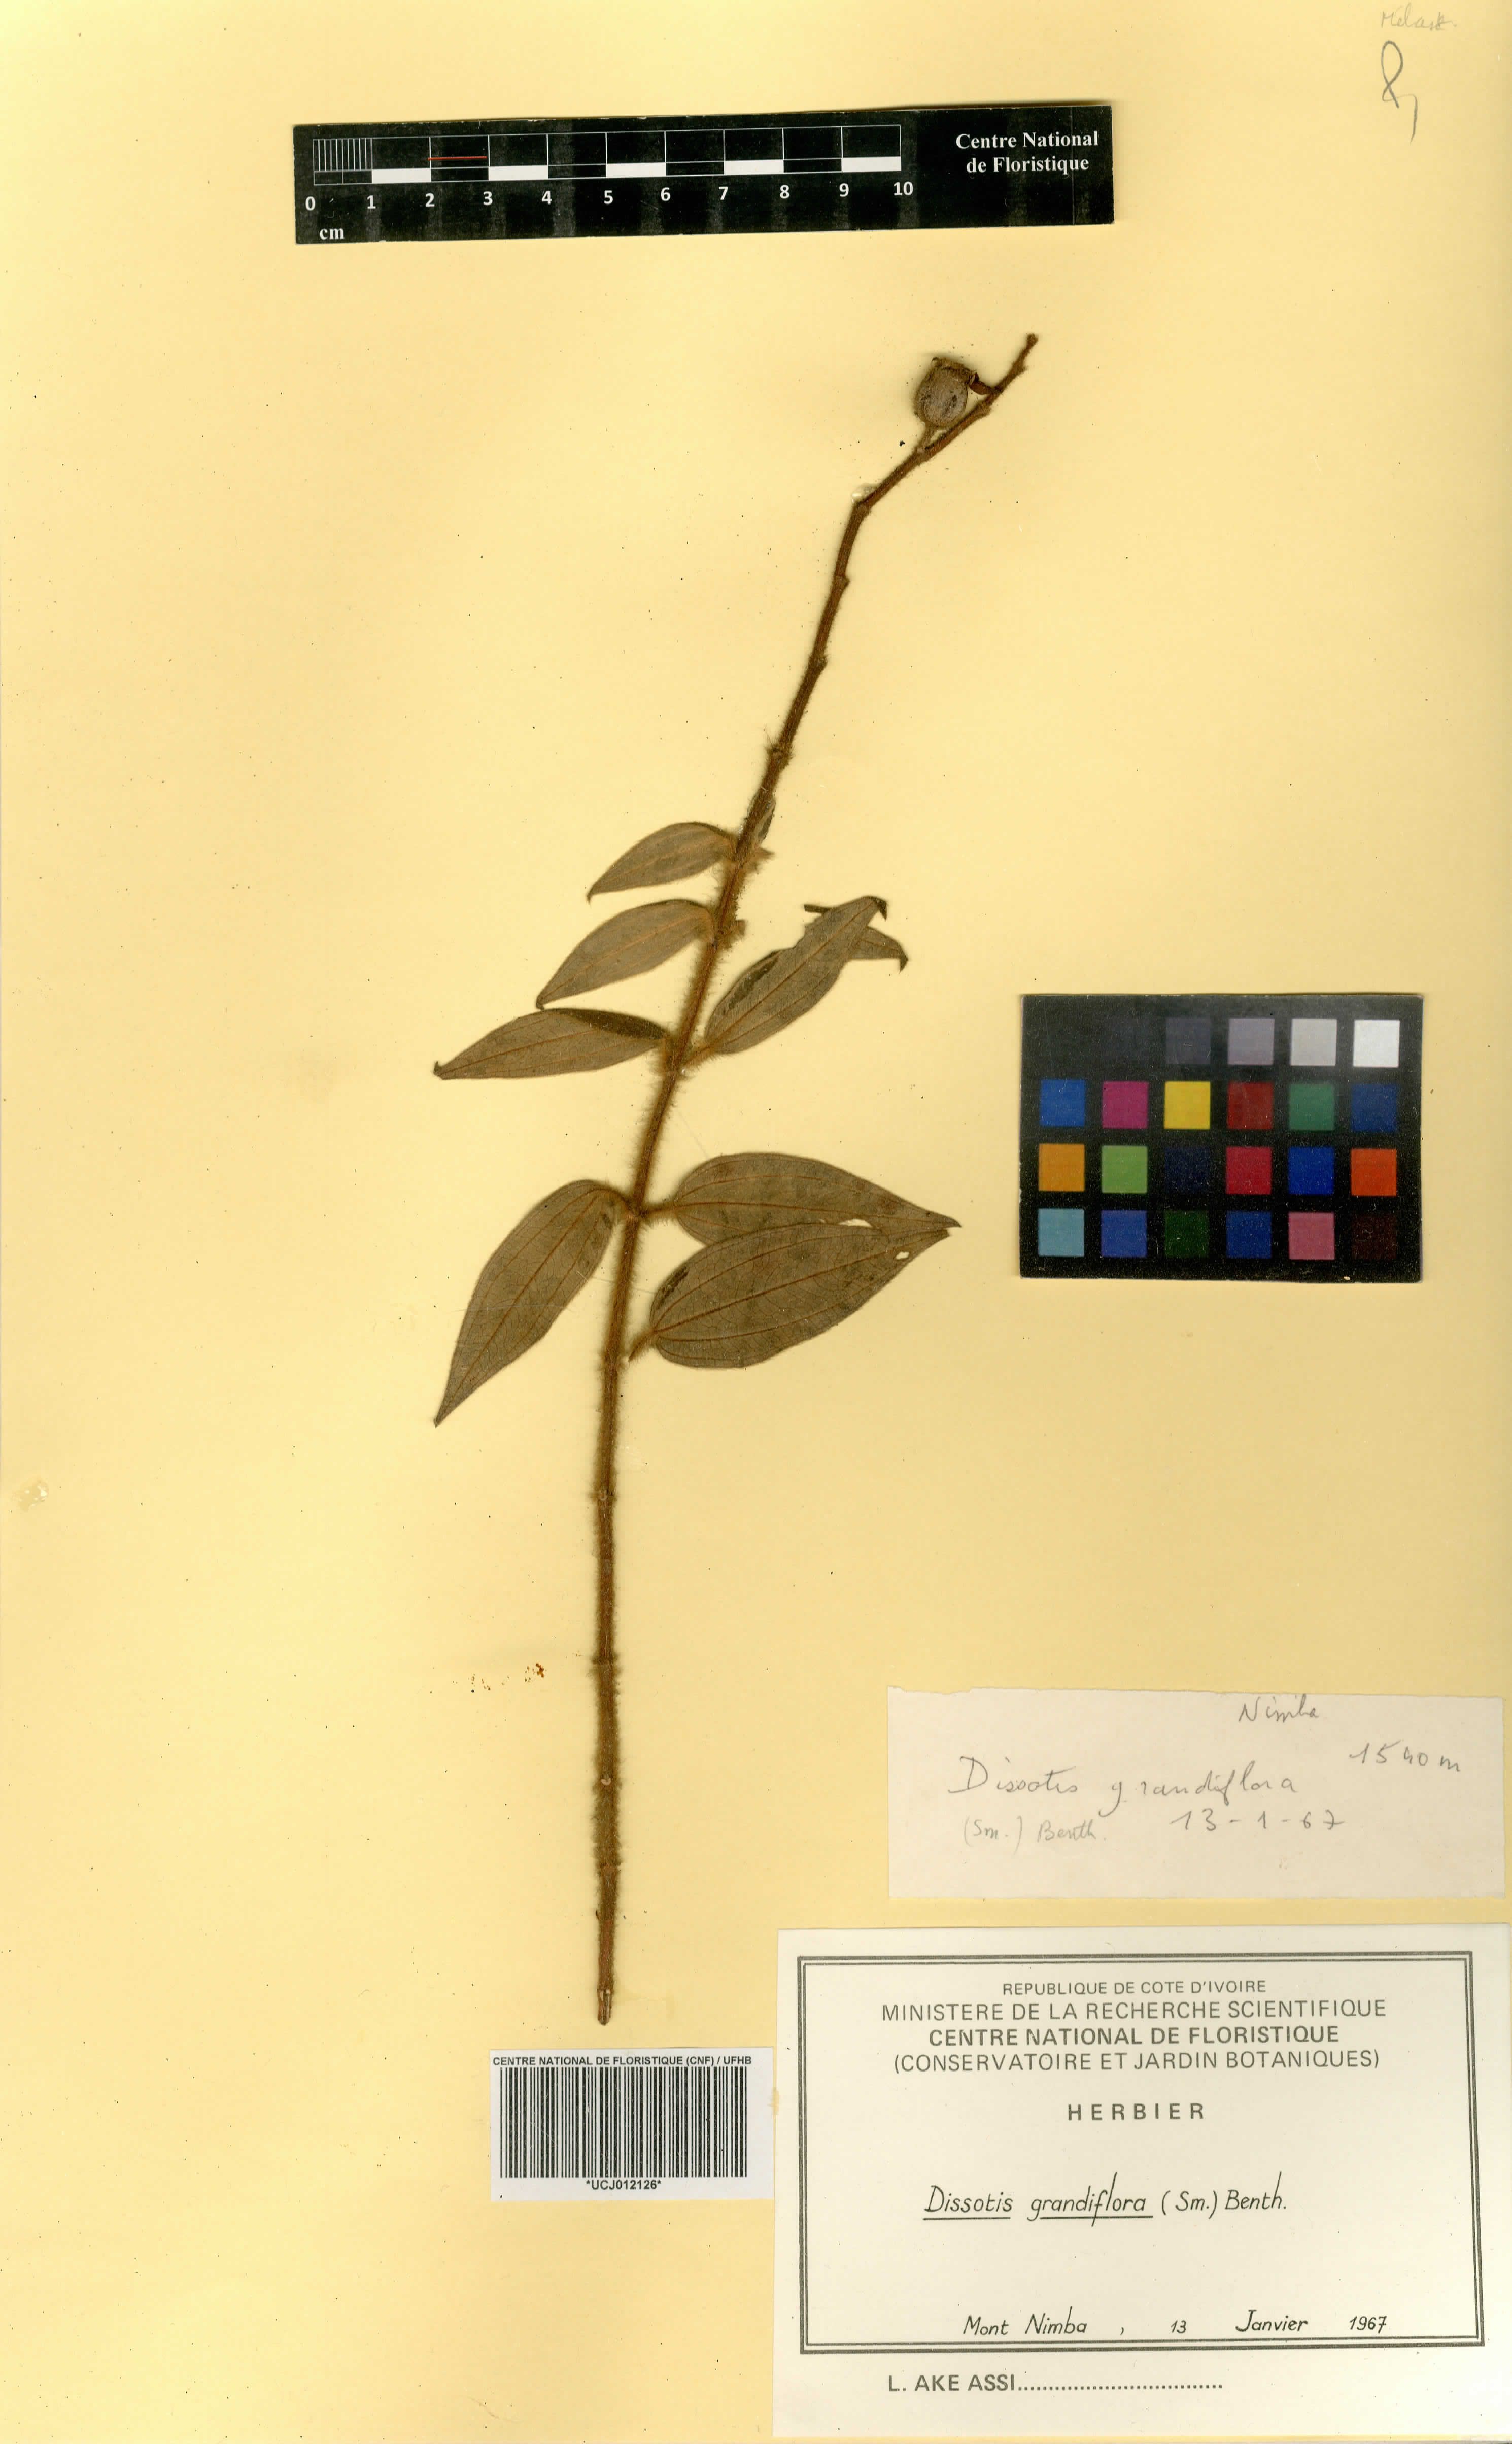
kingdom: Plantae
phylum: Tracheophyta
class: Magnoliopsida
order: Myrtales
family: Melastomataceae
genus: Dissotis
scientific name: Dissotis grandiflora
